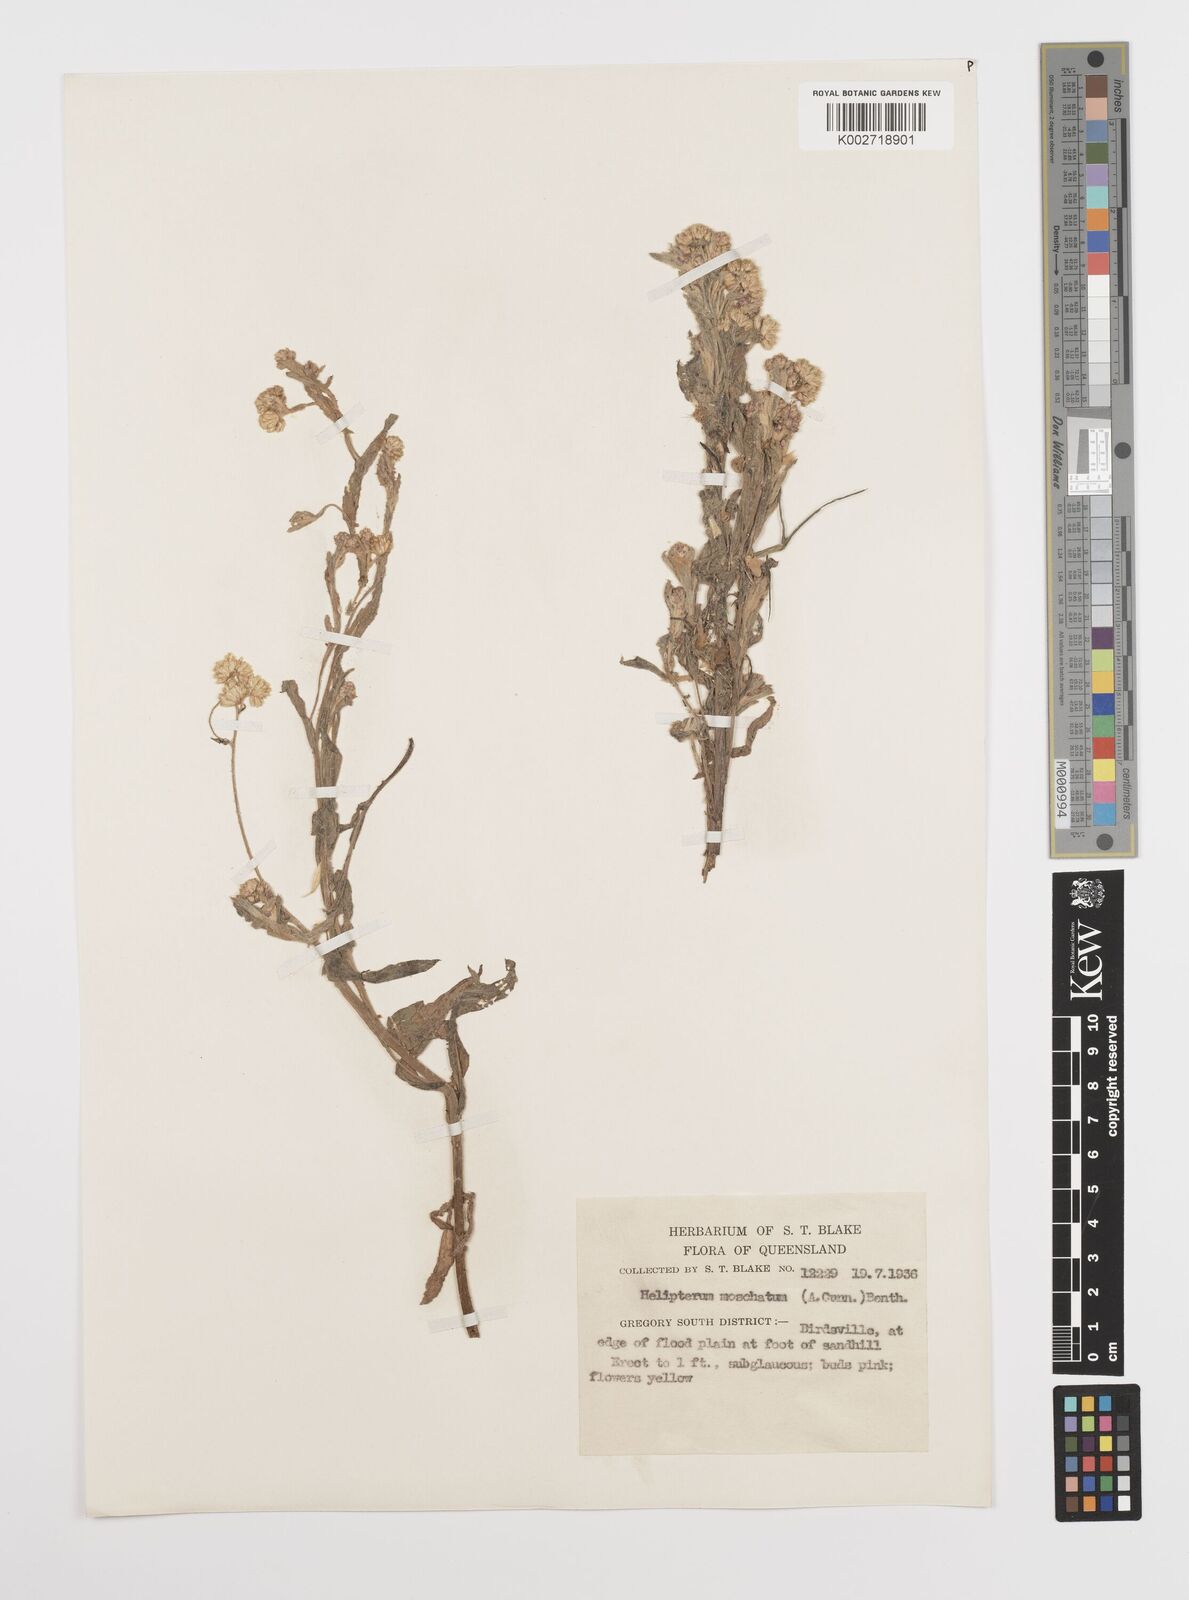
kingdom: Plantae
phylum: Tracheophyta
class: Magnoliopsida
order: Asterales
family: Asteraceae
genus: Rhodanthe
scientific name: Rhodanthe moschata
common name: Musk sunray
